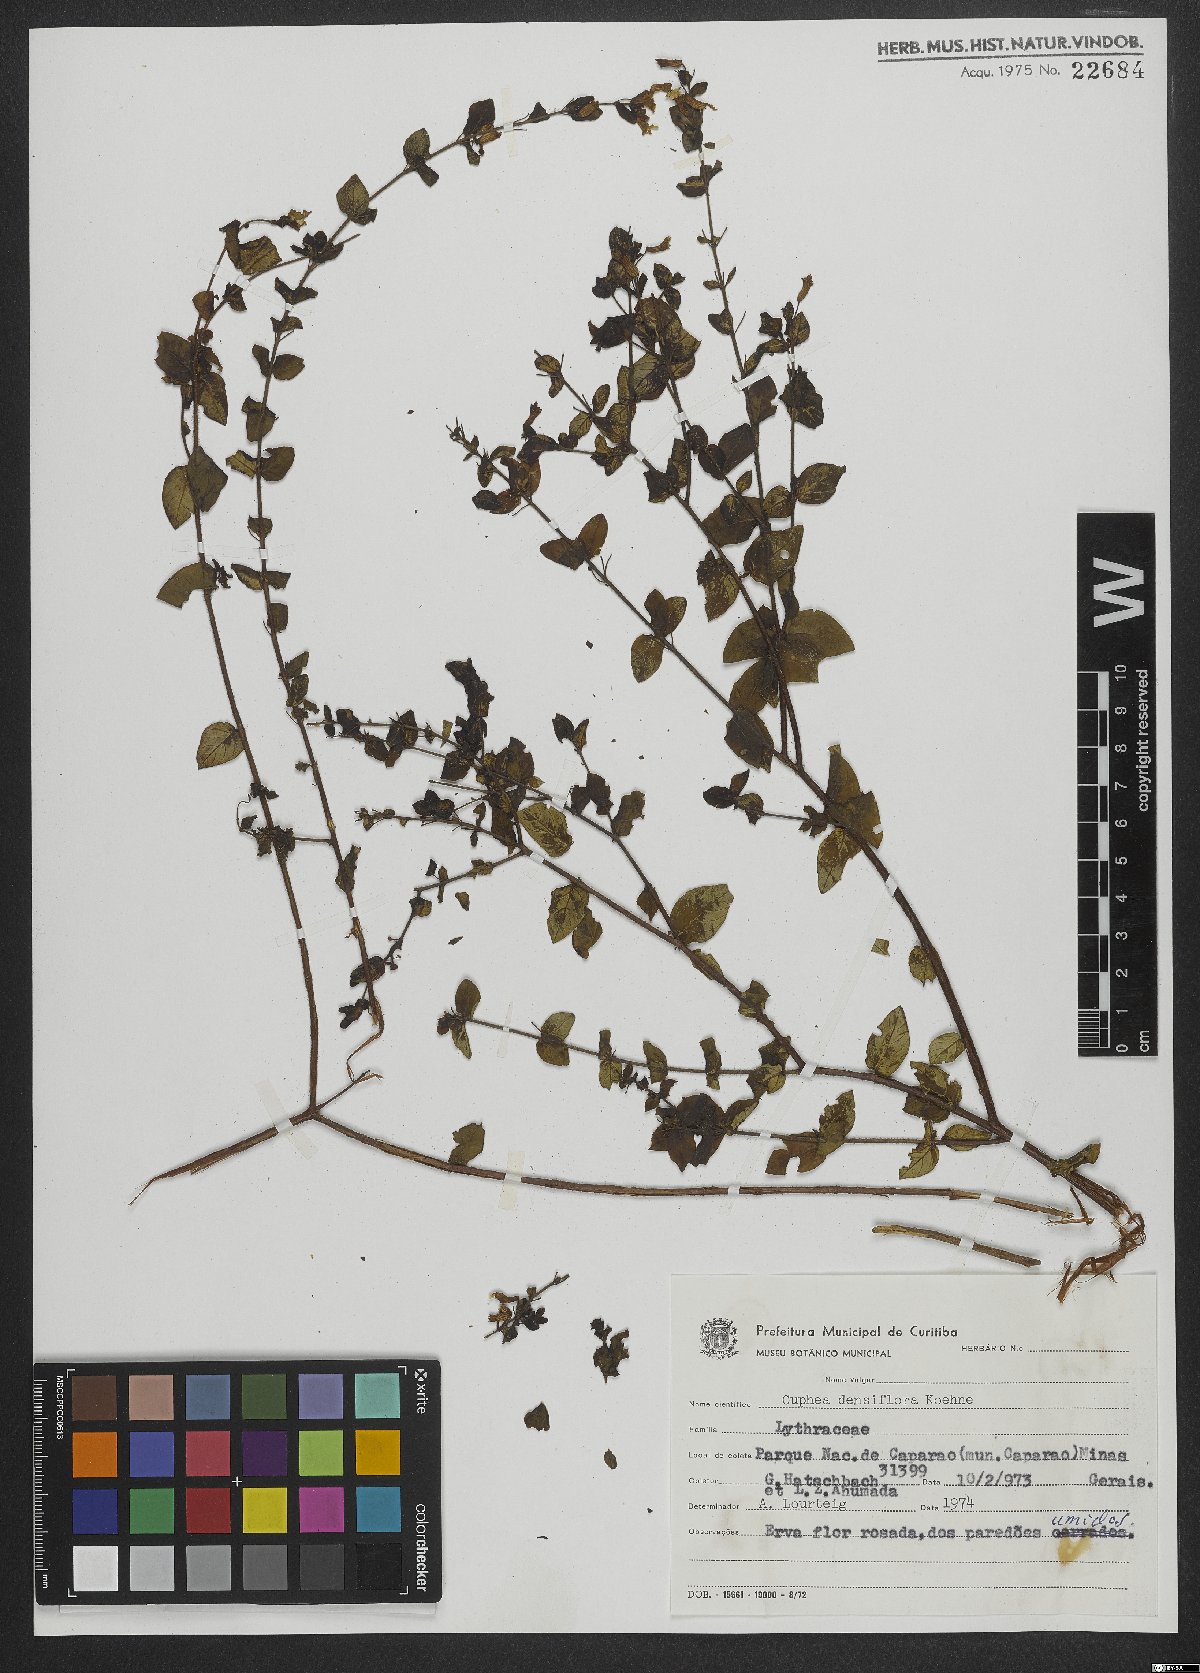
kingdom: Plantae
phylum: Tracheophyta
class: Magnoliopsida
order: Myrtales
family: Lythraceae
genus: Cuphea
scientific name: Cuphea racemosa
